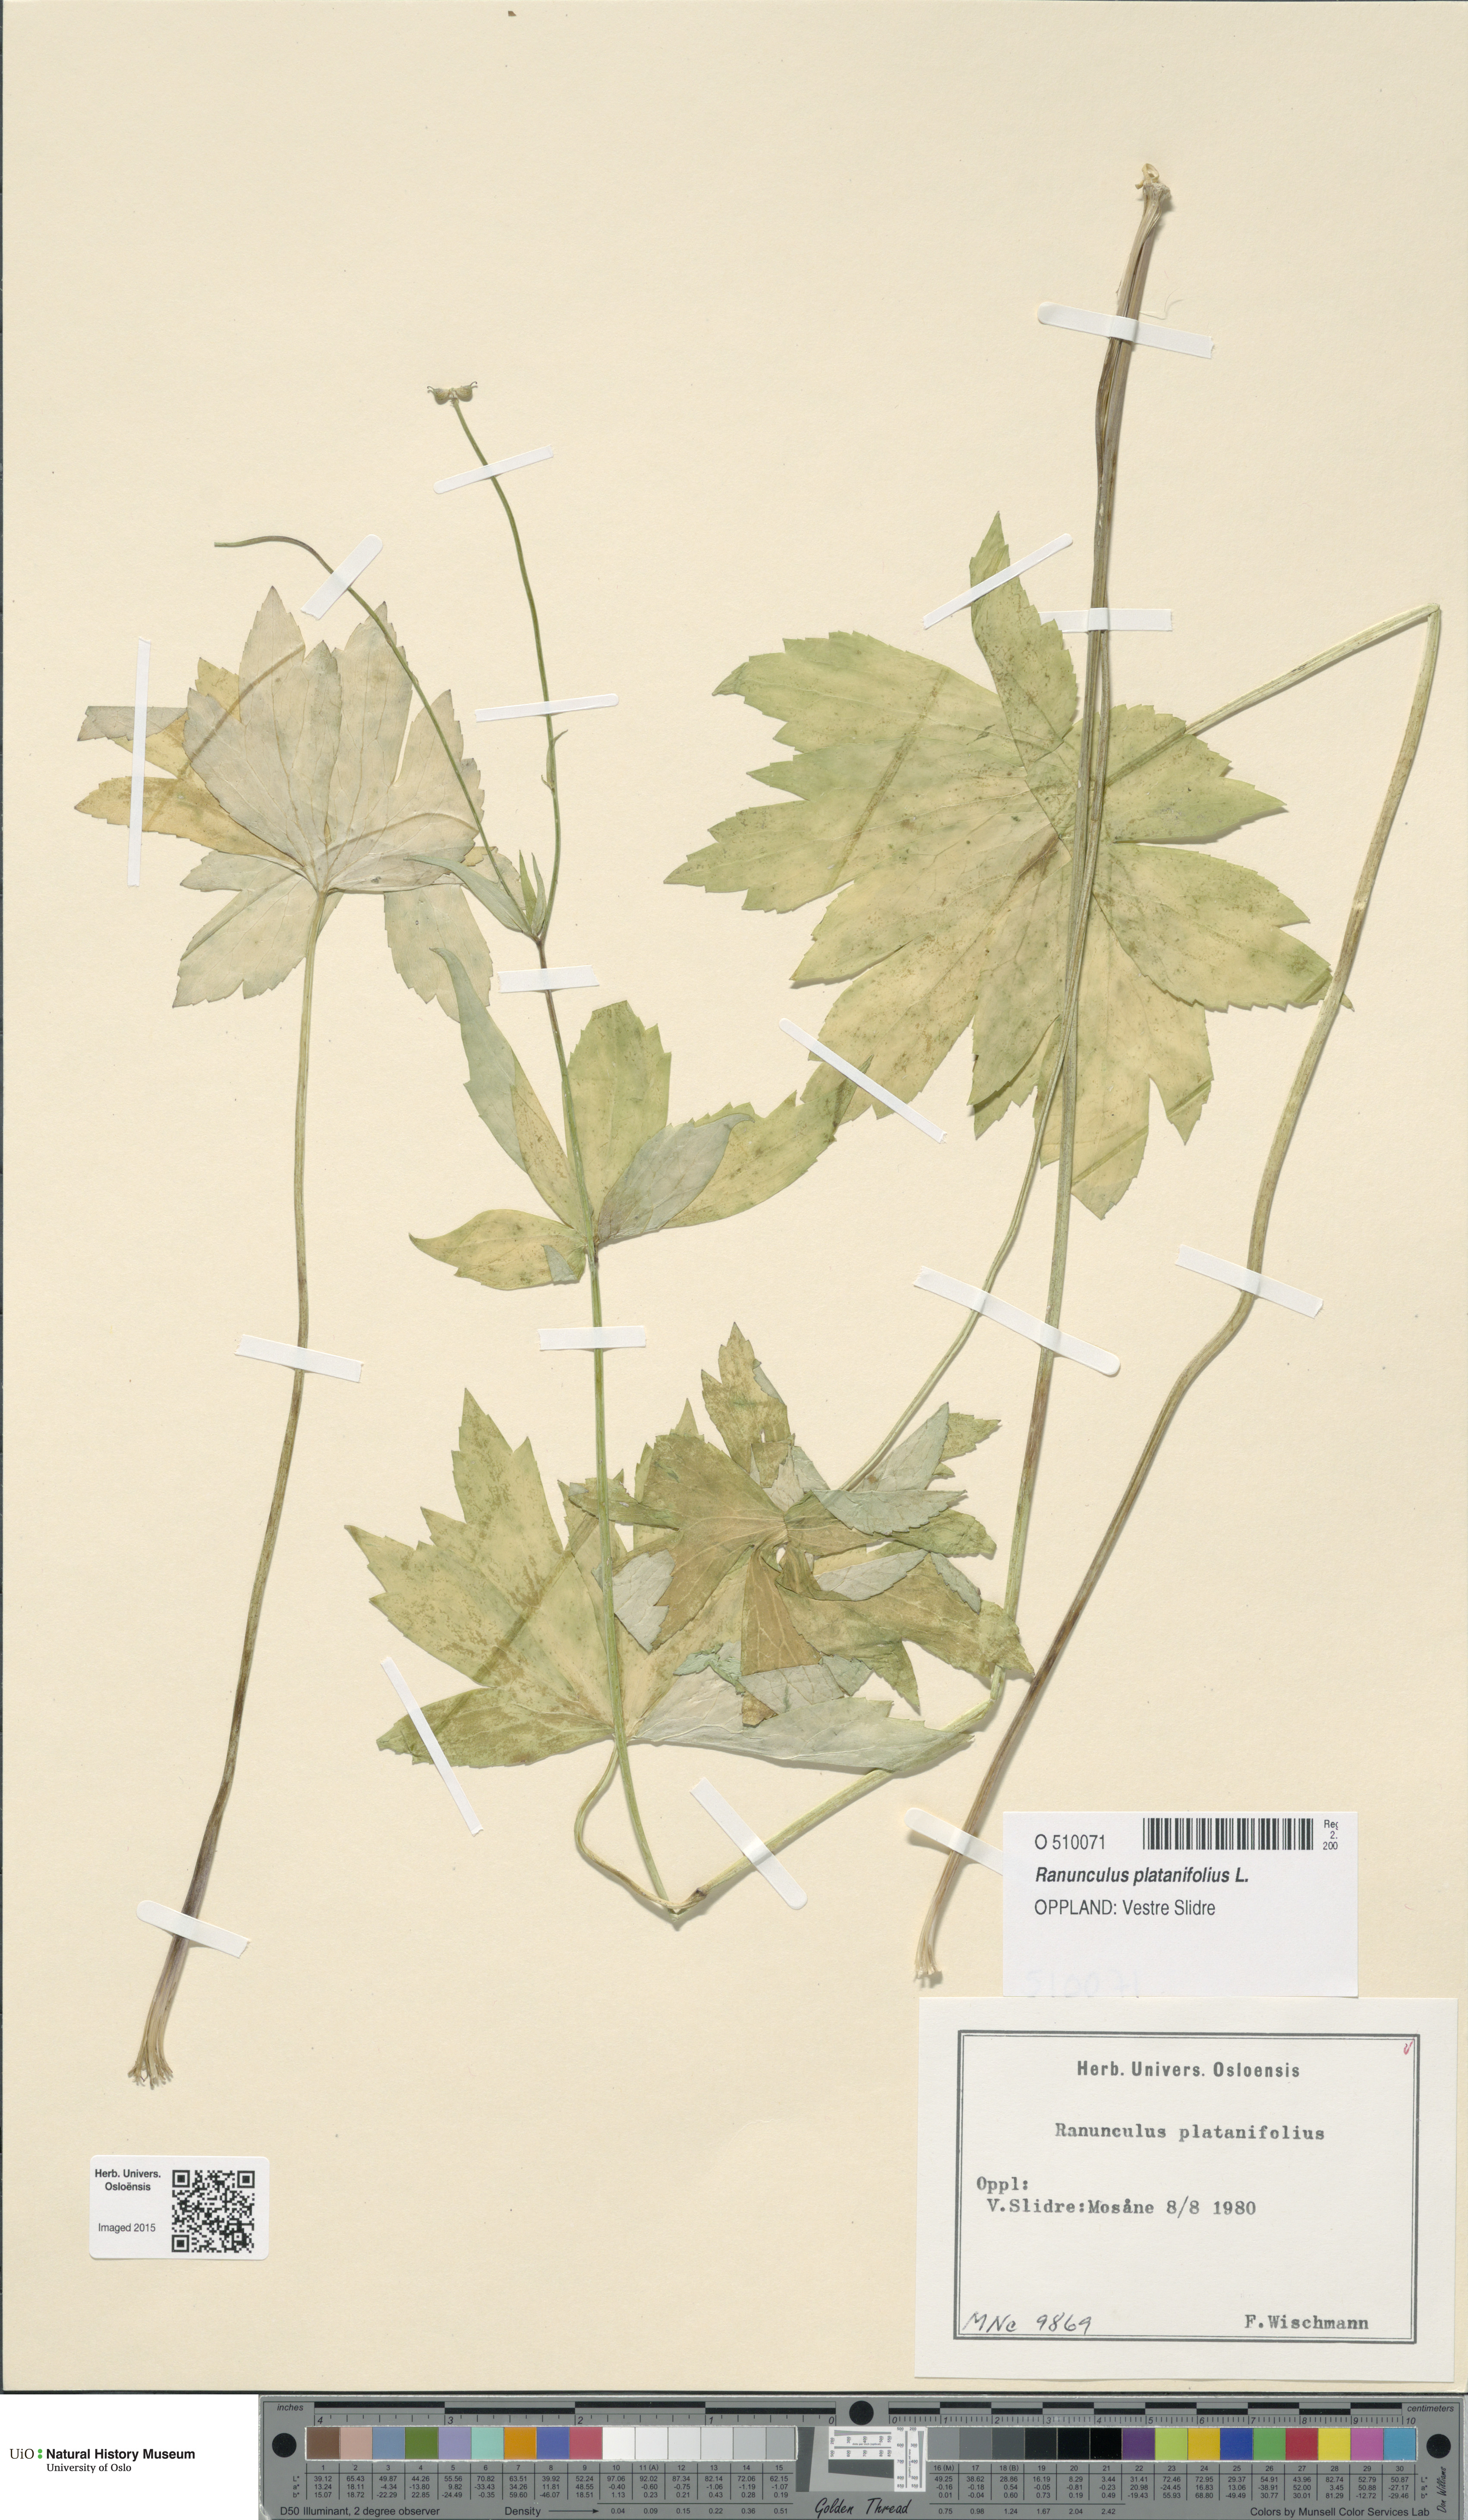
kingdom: Plantae
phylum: Tracheophyta
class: Magnoliopsida
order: Ranunculales
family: Ranunculaceae
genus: Ranunculus
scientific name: Ranunculus platanifolius
